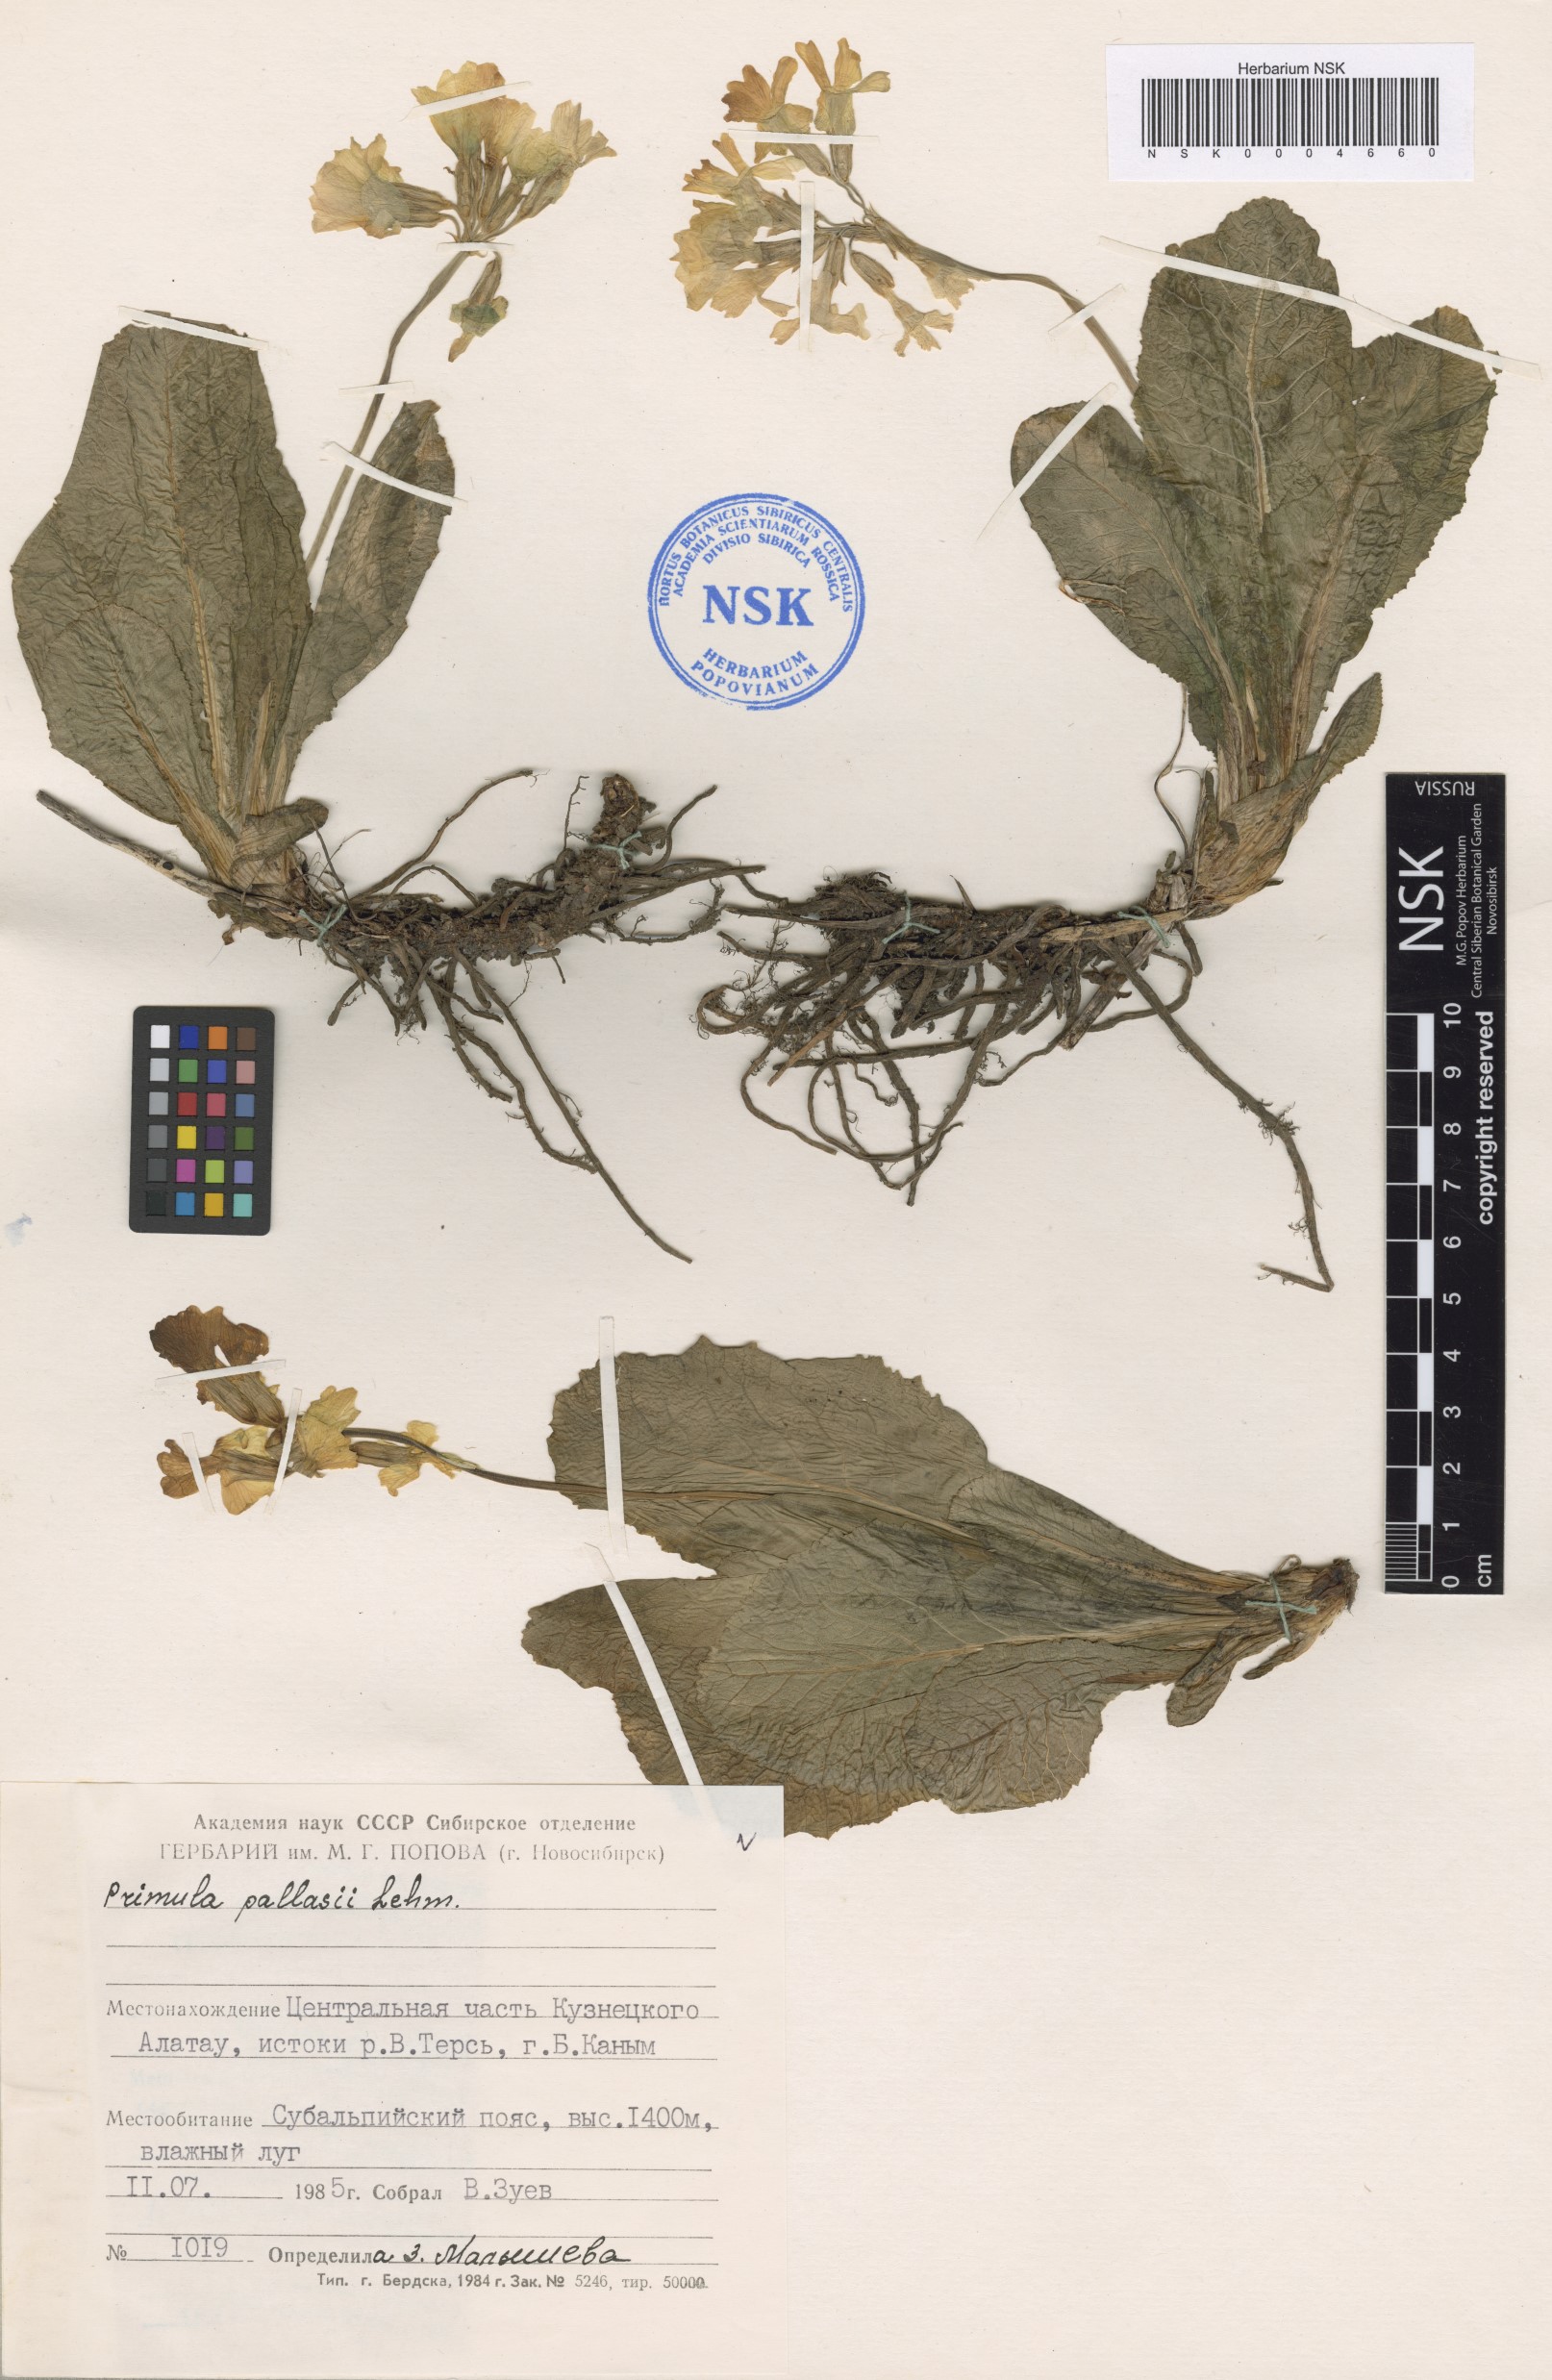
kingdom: Plantae
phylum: Tracheophyta
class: Magnoliopsida
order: Ericales
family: Primulaceae
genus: Primula
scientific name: Primula elatior
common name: Oxlip
